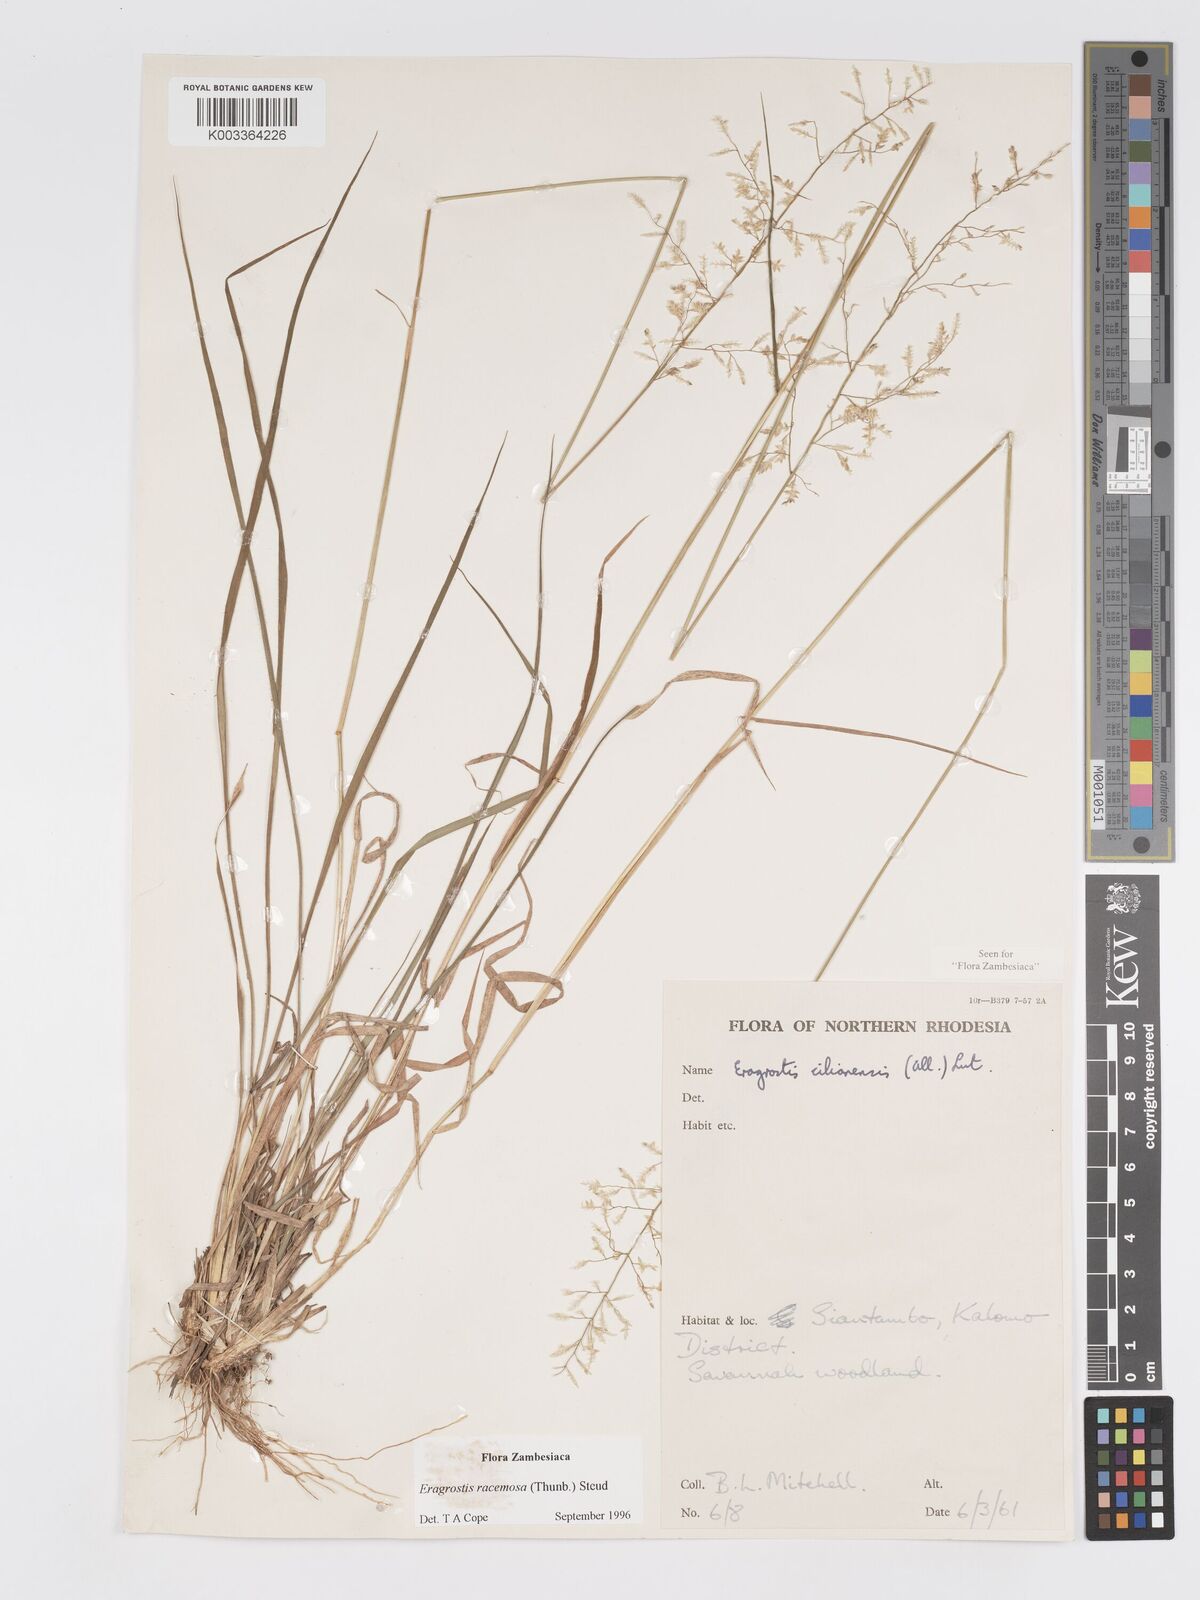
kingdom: Plantae
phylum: Tracheophyta
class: Liliopsida
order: Poales
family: Poaceae
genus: Eragrostis
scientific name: Eragrostis racemosa
